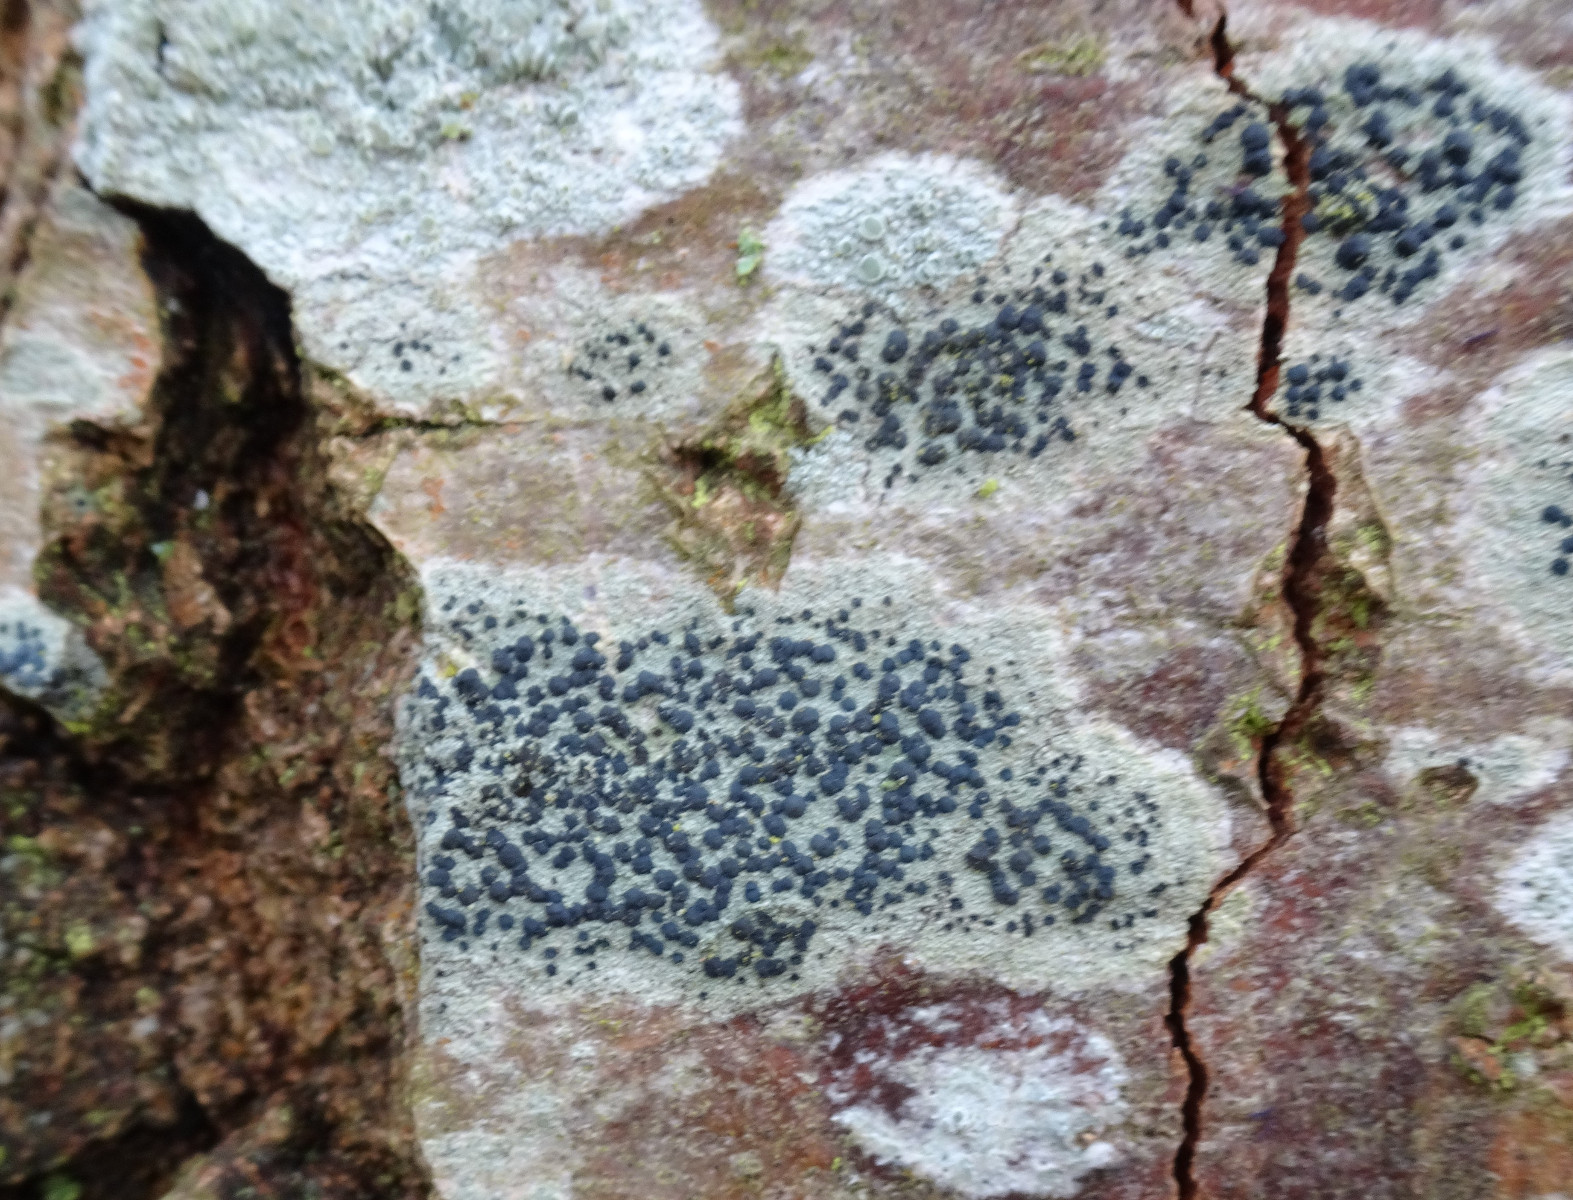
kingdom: Fungi
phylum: Ascomycota
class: Lecanoromycetes
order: Lecanorales
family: Lecanoraceae
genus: Lecidella
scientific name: Lecidella elaeochroma
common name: grågrøn skivelav
